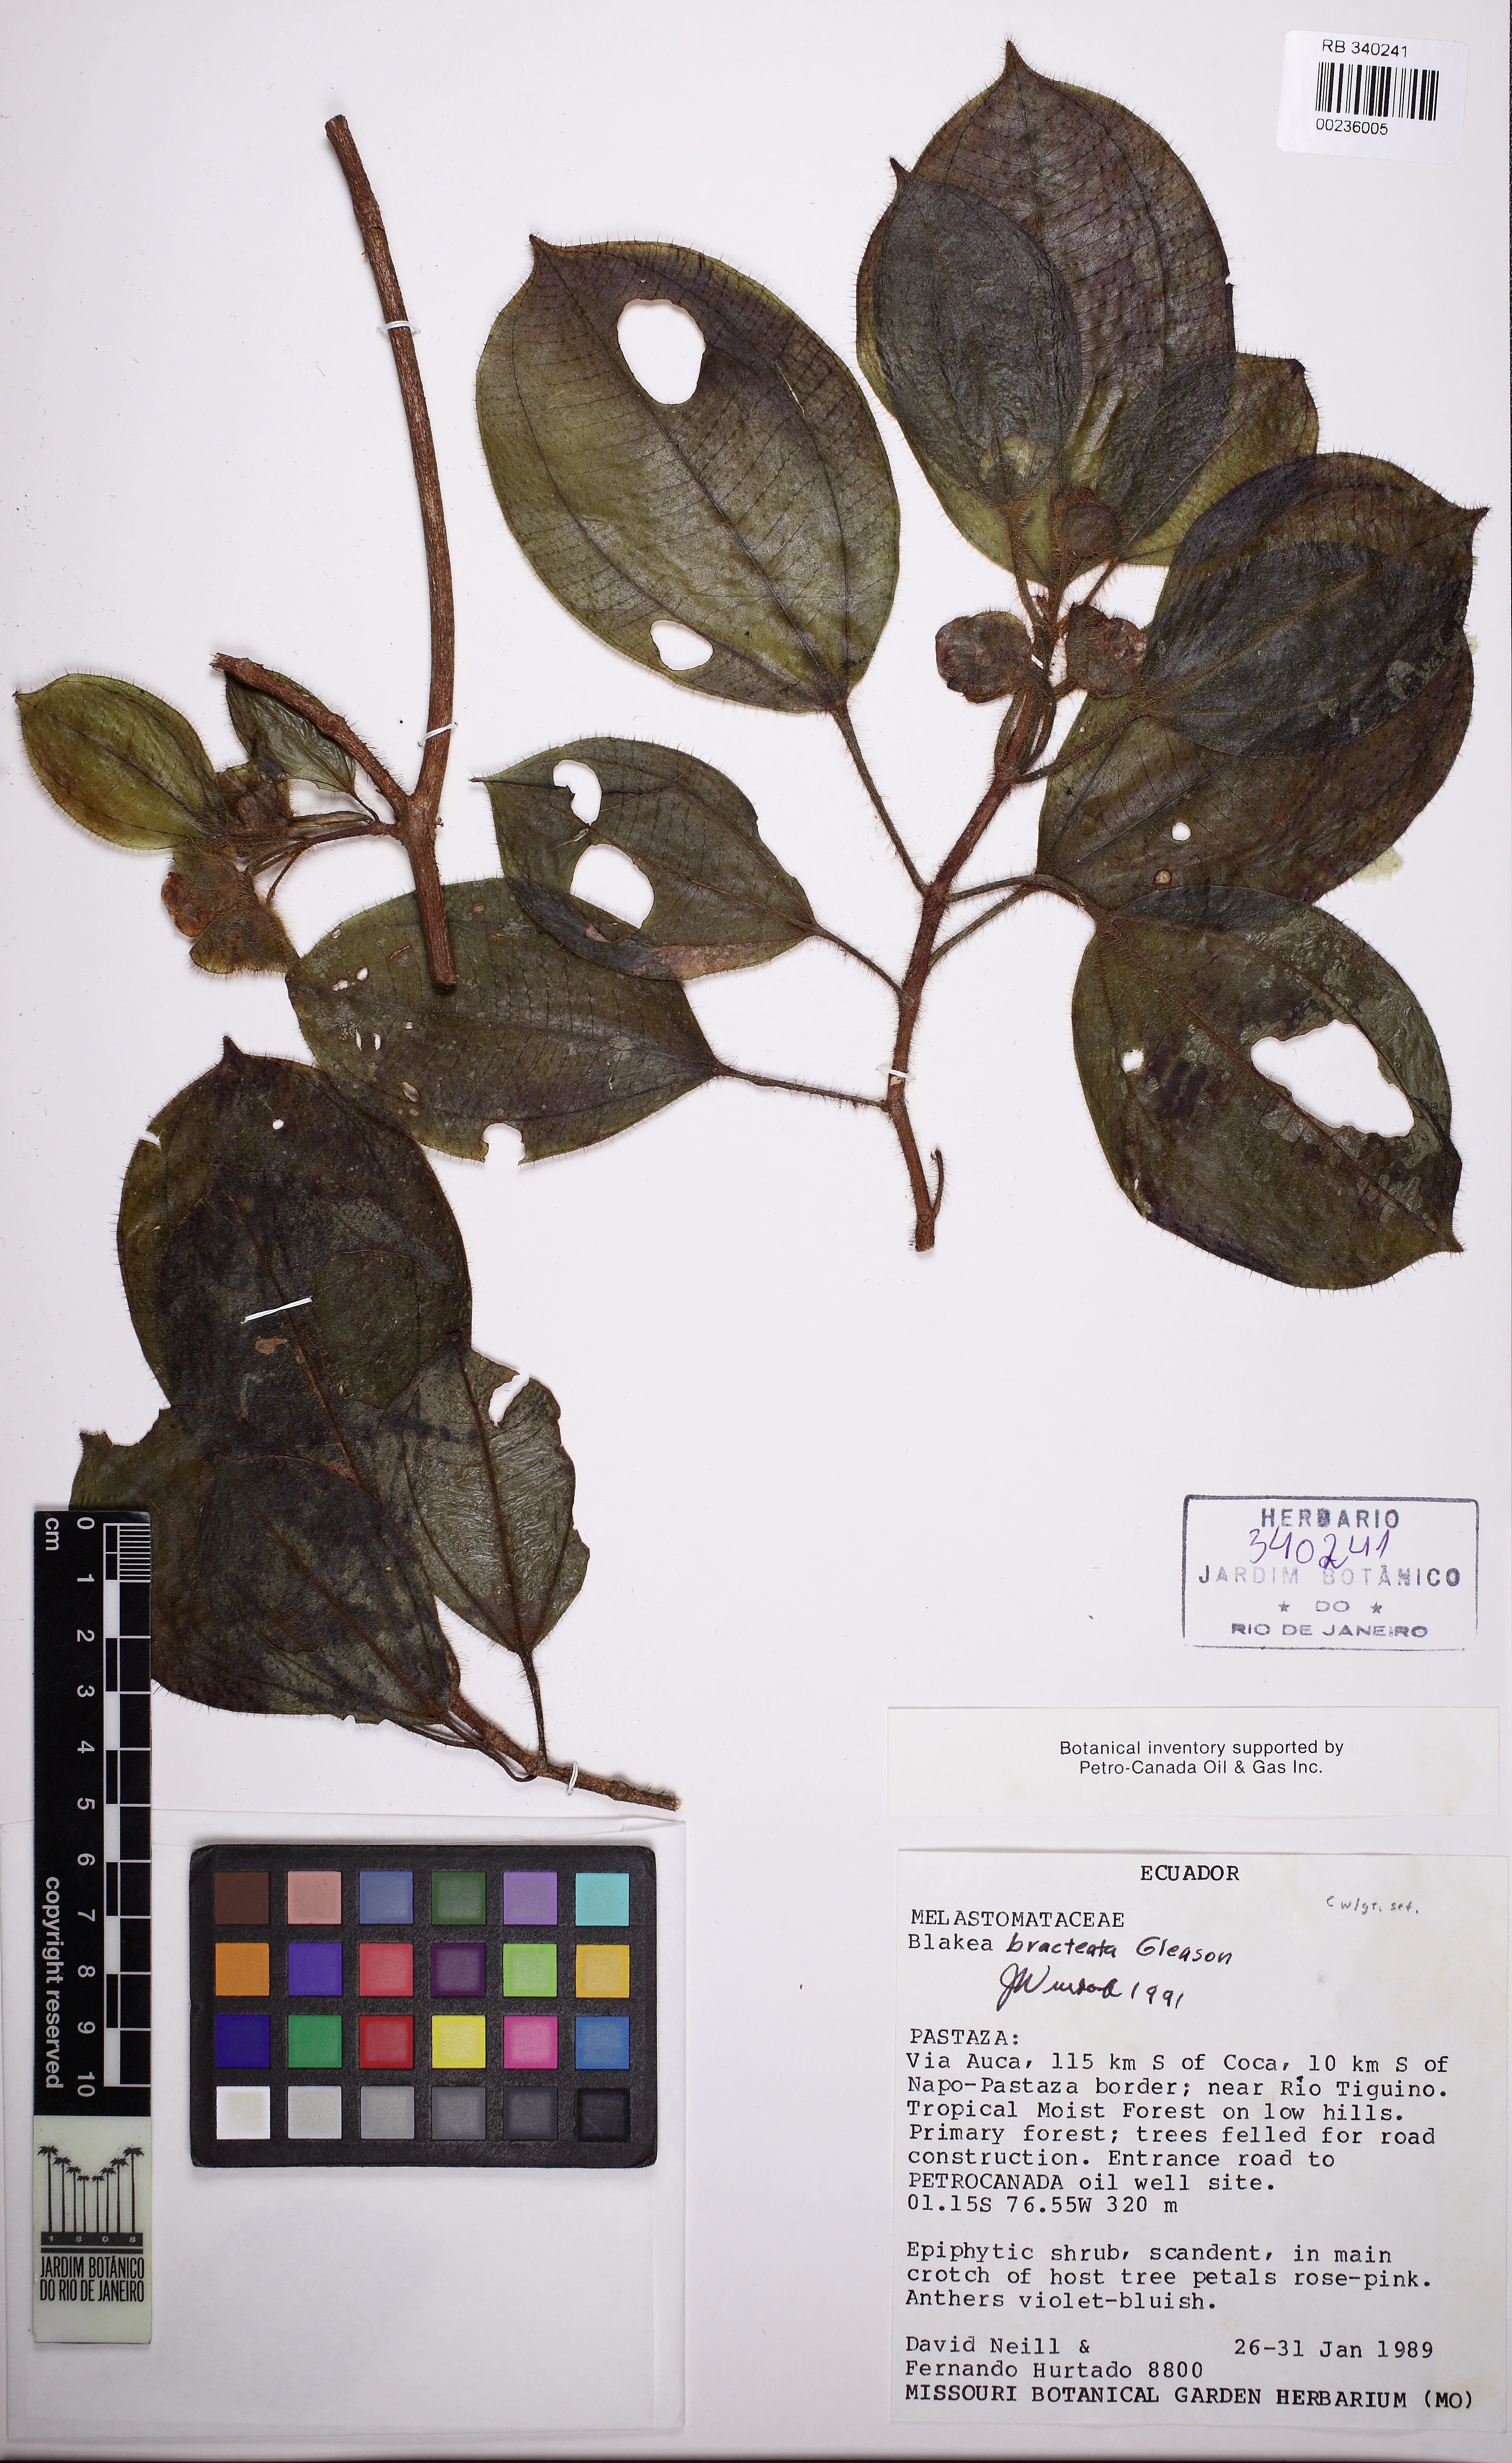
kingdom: Plantae
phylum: Tracheophyta
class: Magnoliopsida
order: Myrtales
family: Melastomataceae
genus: Blakea
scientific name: Blakea bracteata
